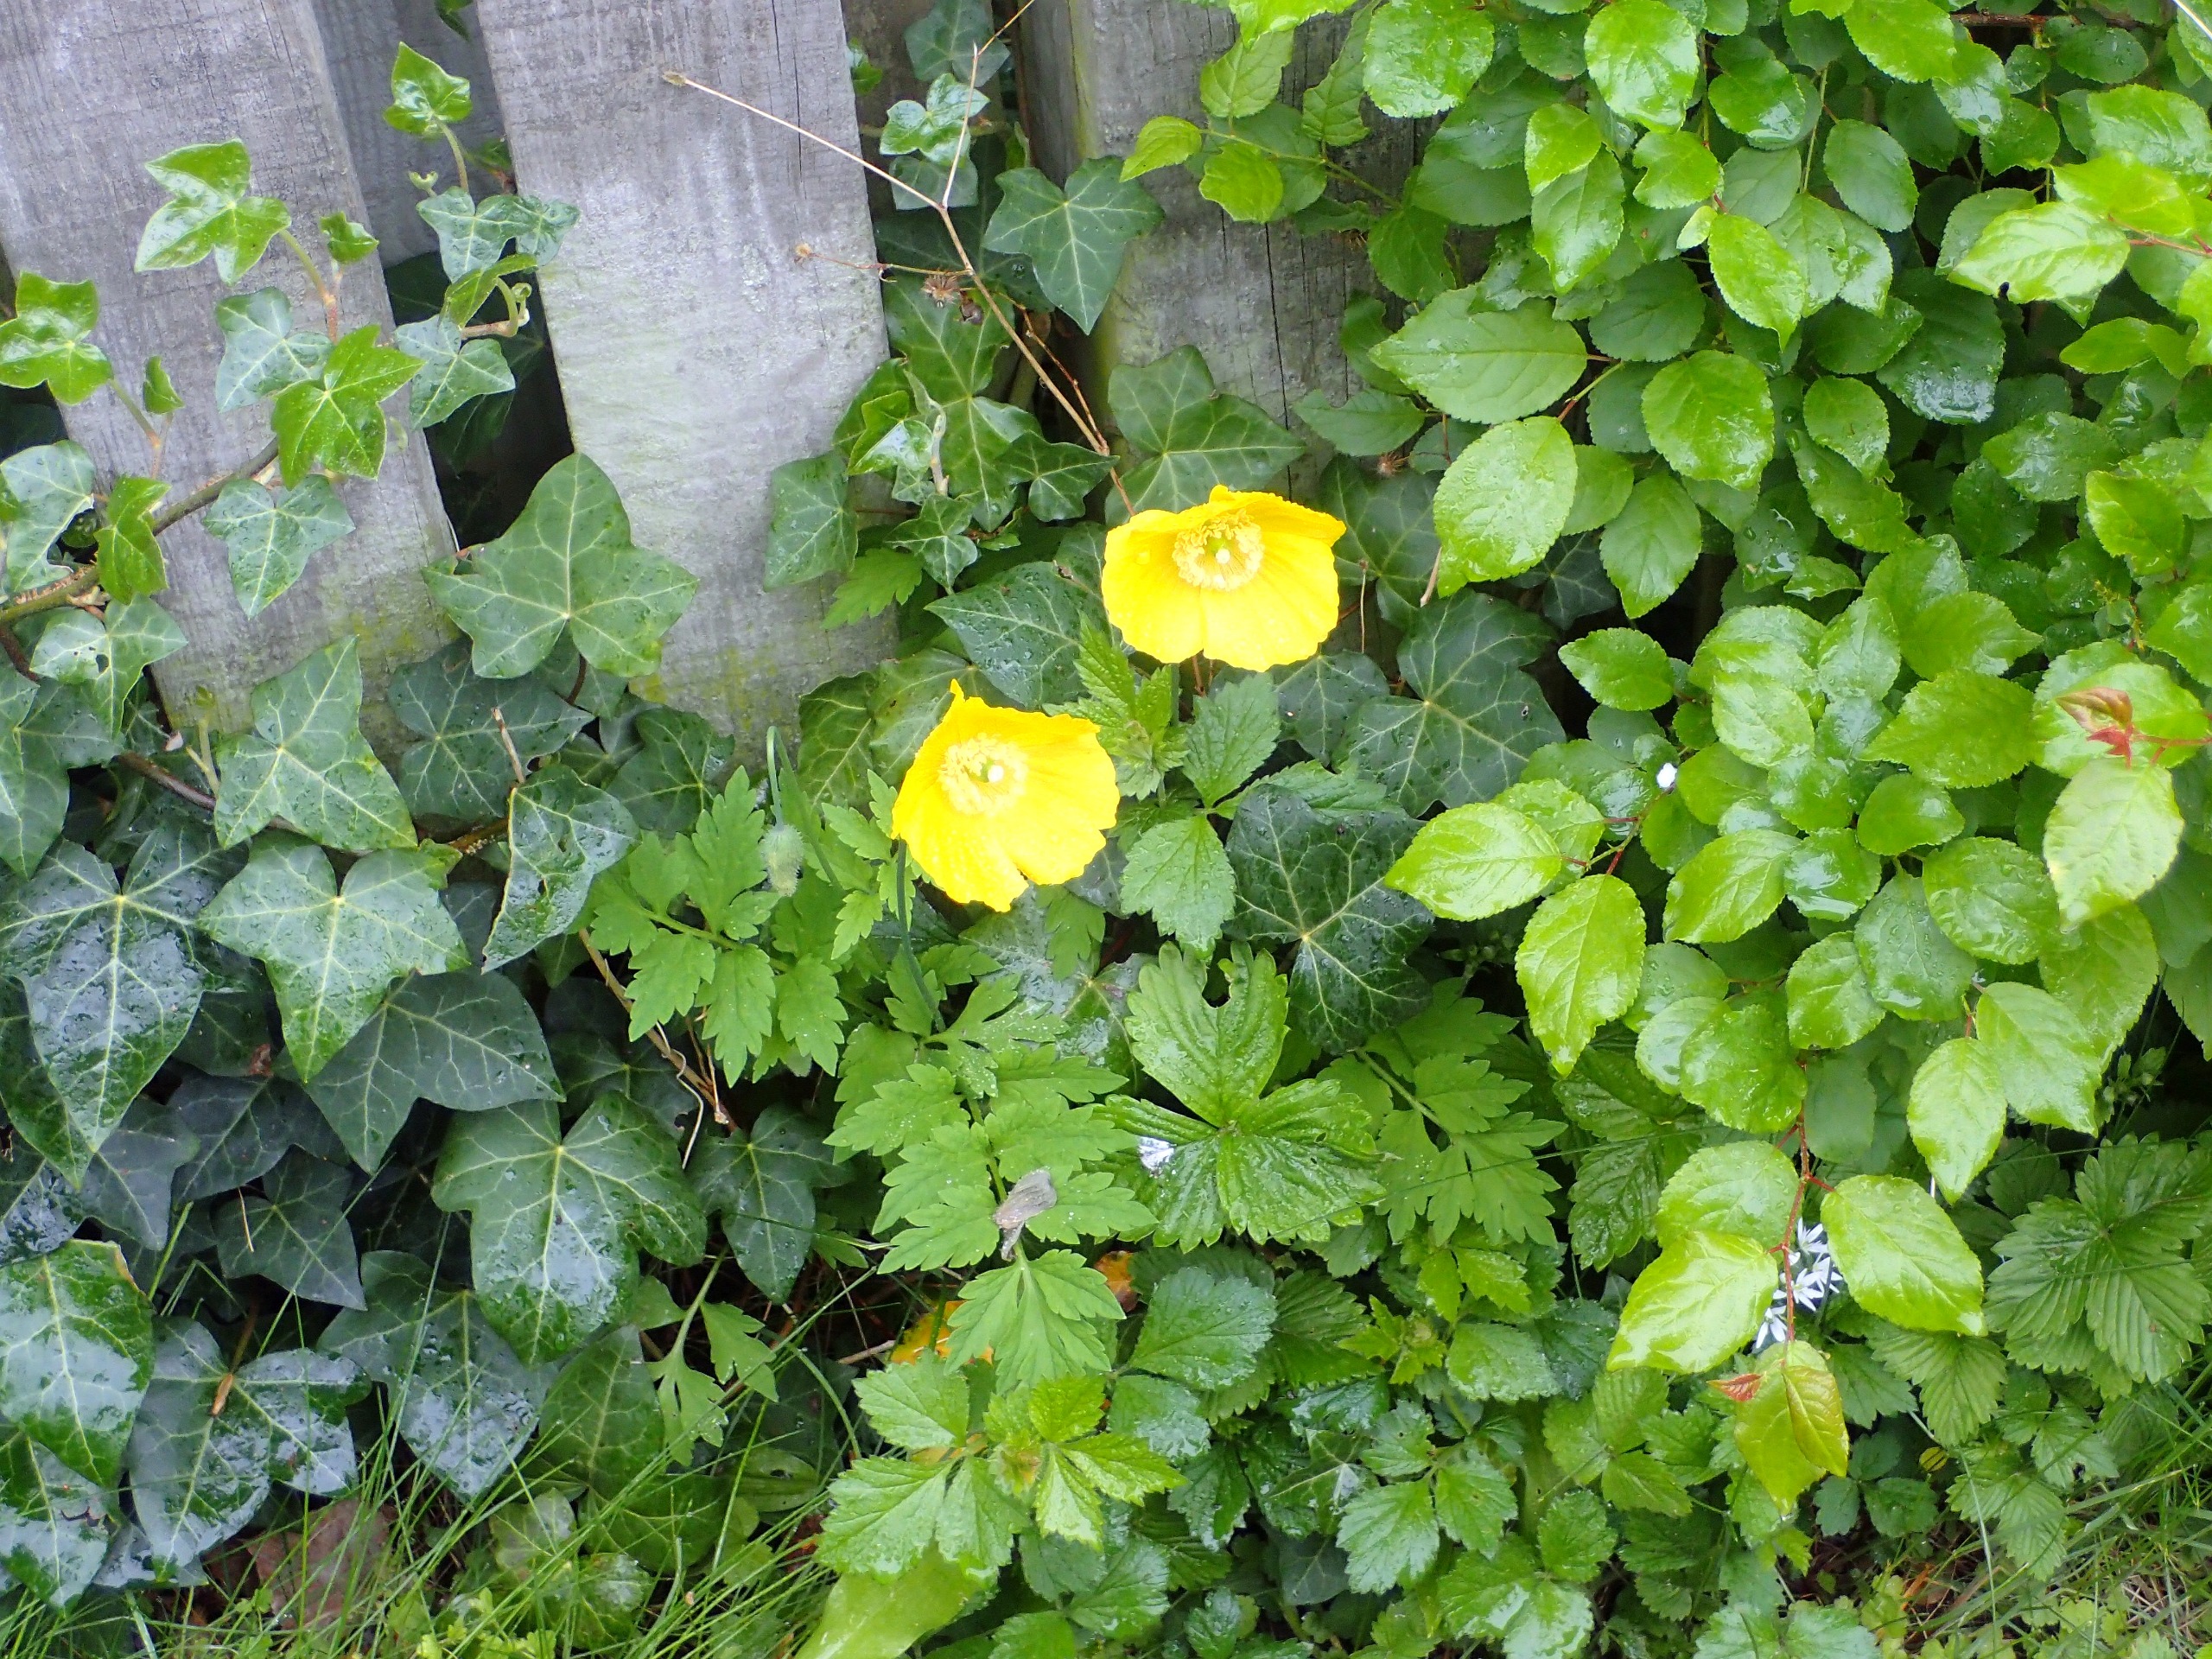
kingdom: Plantae
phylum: Tracheophyta
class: Magnoliopsida
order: Ranunculales
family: Papaveraceae
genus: Papaver
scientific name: Papaver cambricum
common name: Skov-valmue
